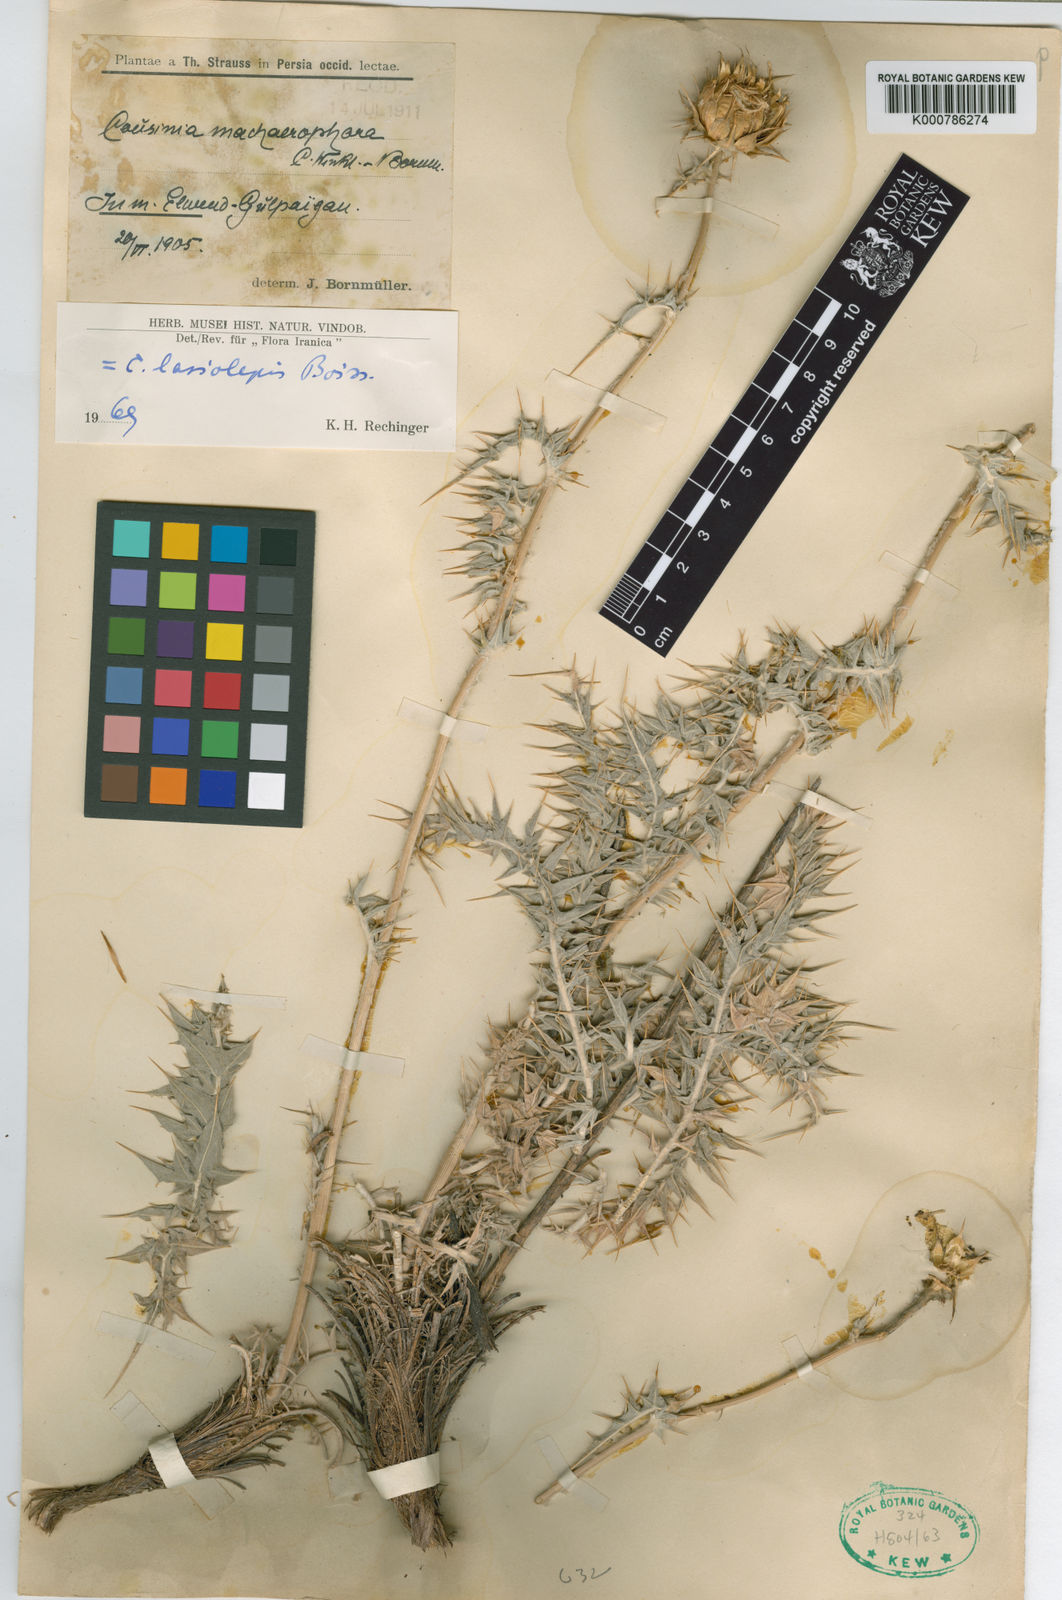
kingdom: Plantae
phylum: Tracheophyta
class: Magnoliopsida
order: Asterales
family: Asteraceae
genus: Cousinia
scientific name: Cousinia lasiolepis
